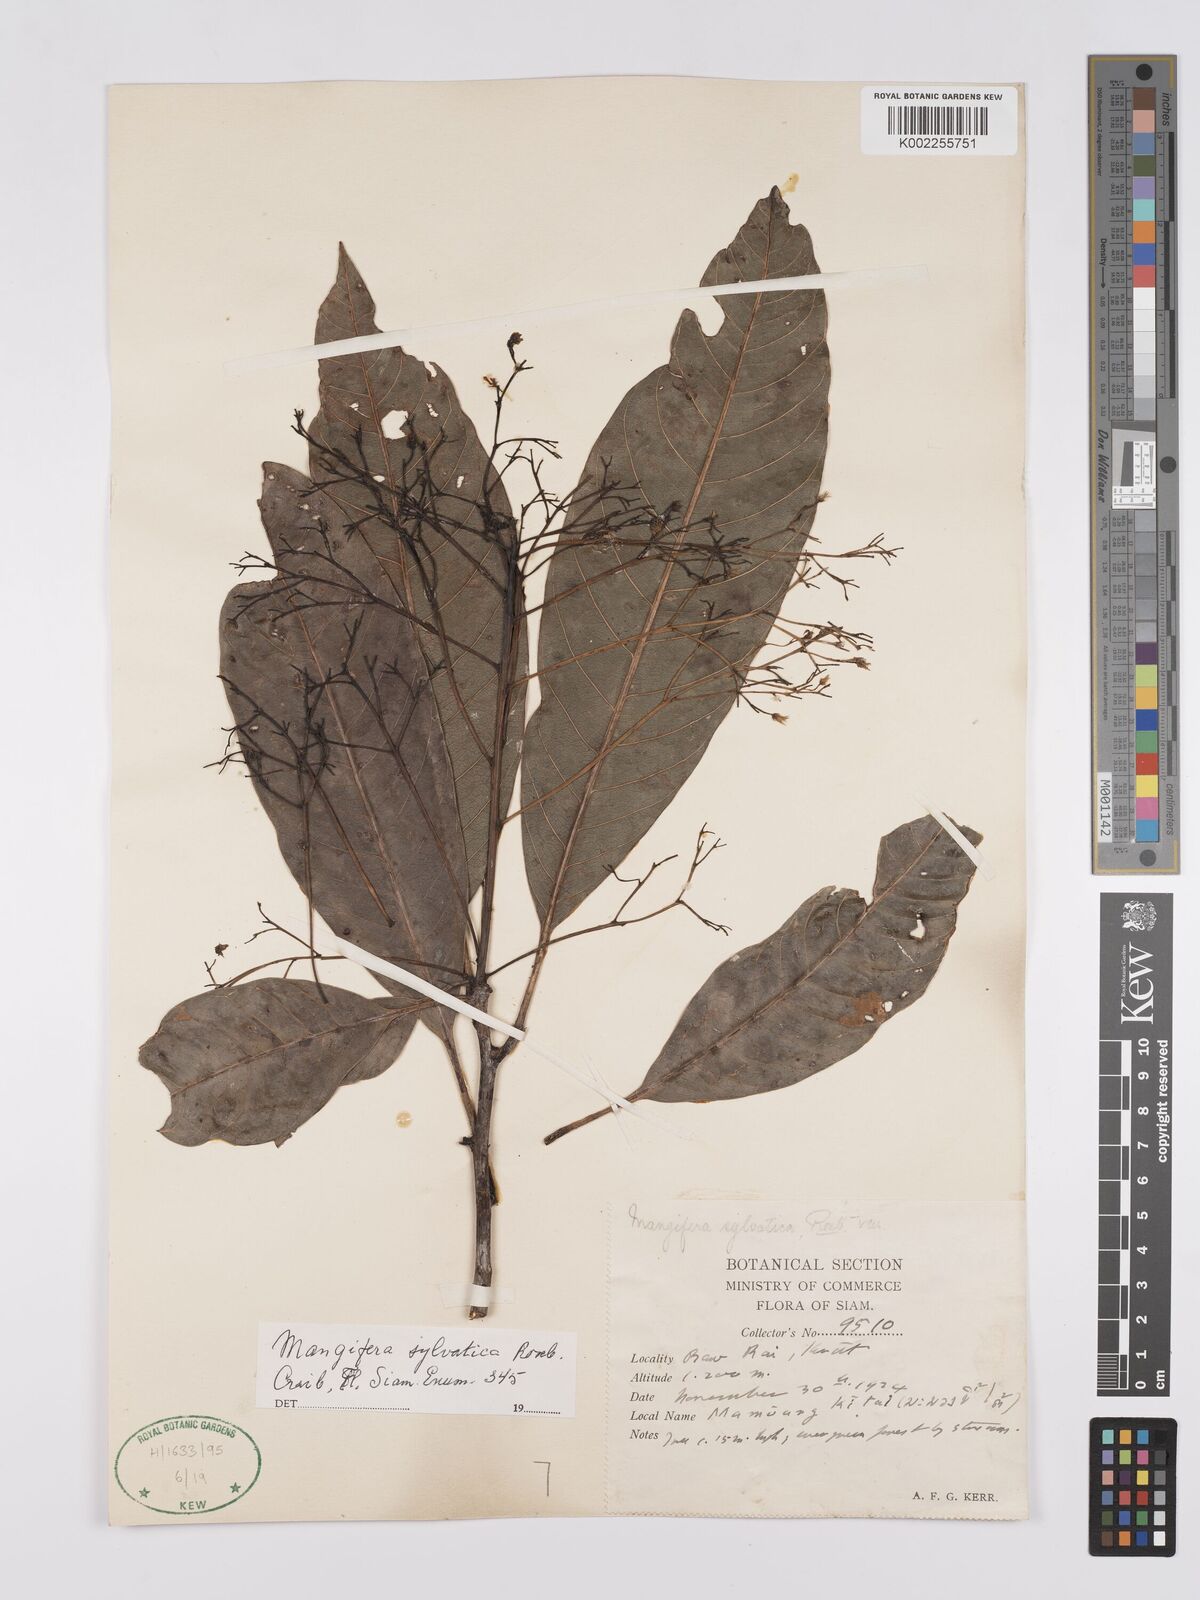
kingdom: Plantae
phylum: Tracheophyta
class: Magnoliopsida
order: Sapindales
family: Anacardiaceae
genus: Mangifera
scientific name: Mangifera sylvatica
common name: Nepal mango
